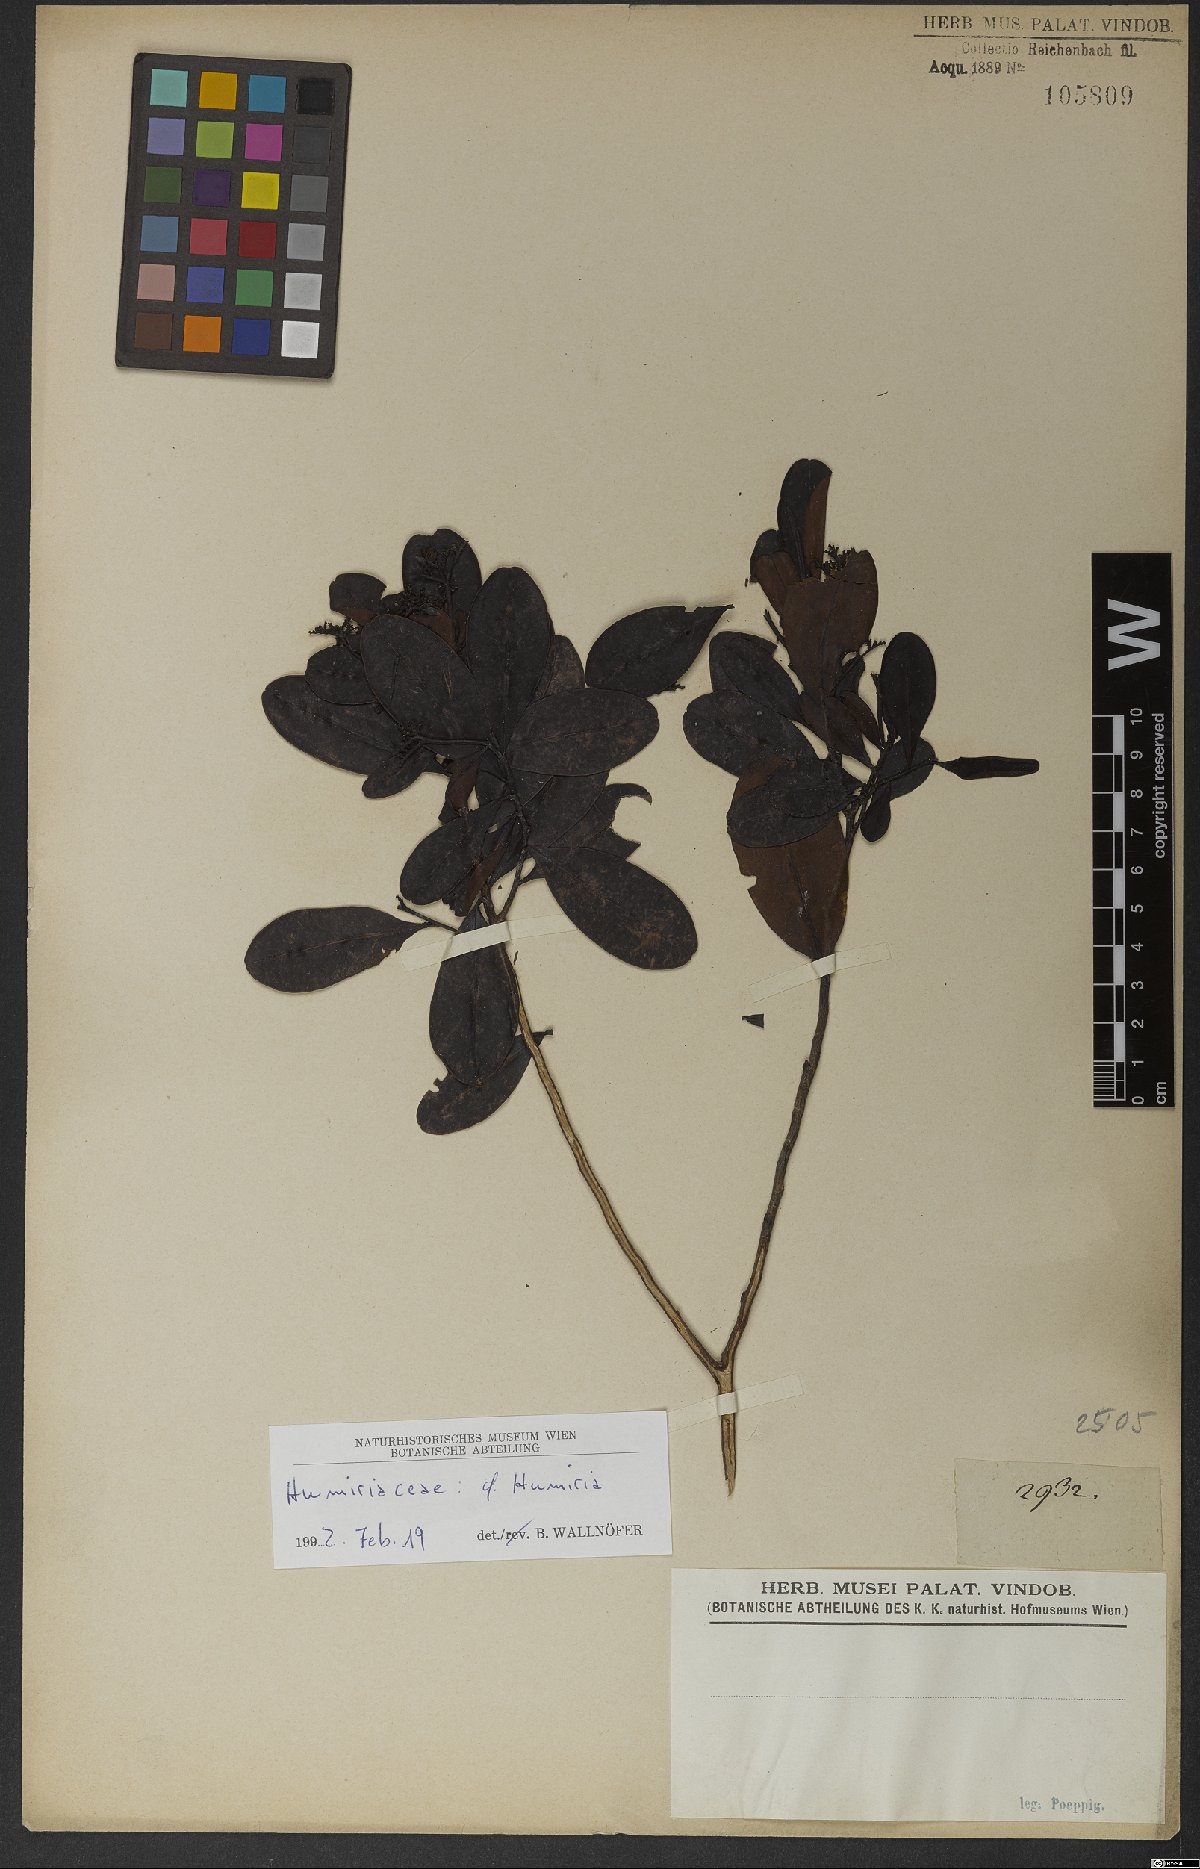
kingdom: Plantae
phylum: Tracheophyta
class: Magnoliopsida
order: Malpighiales
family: Humiriaceae
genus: Humiria
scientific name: Humiria
